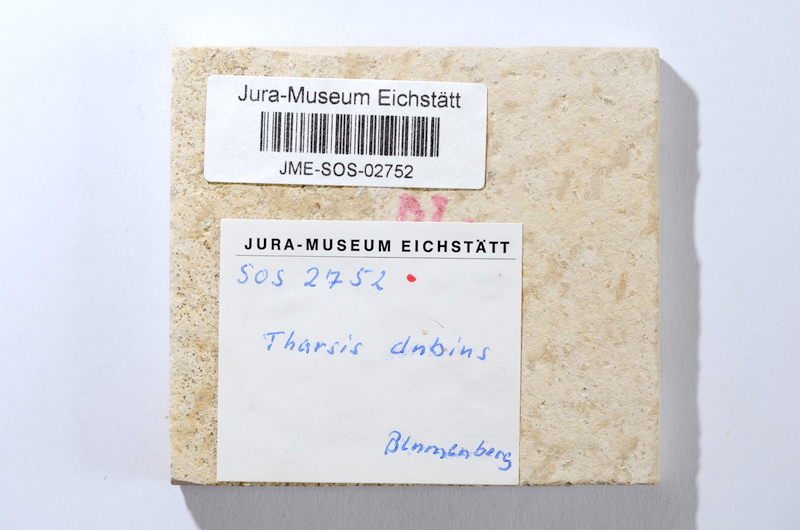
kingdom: Animalia
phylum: Chordata
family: Ascalaboidae
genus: Tharsis
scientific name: Tharsis dubius
